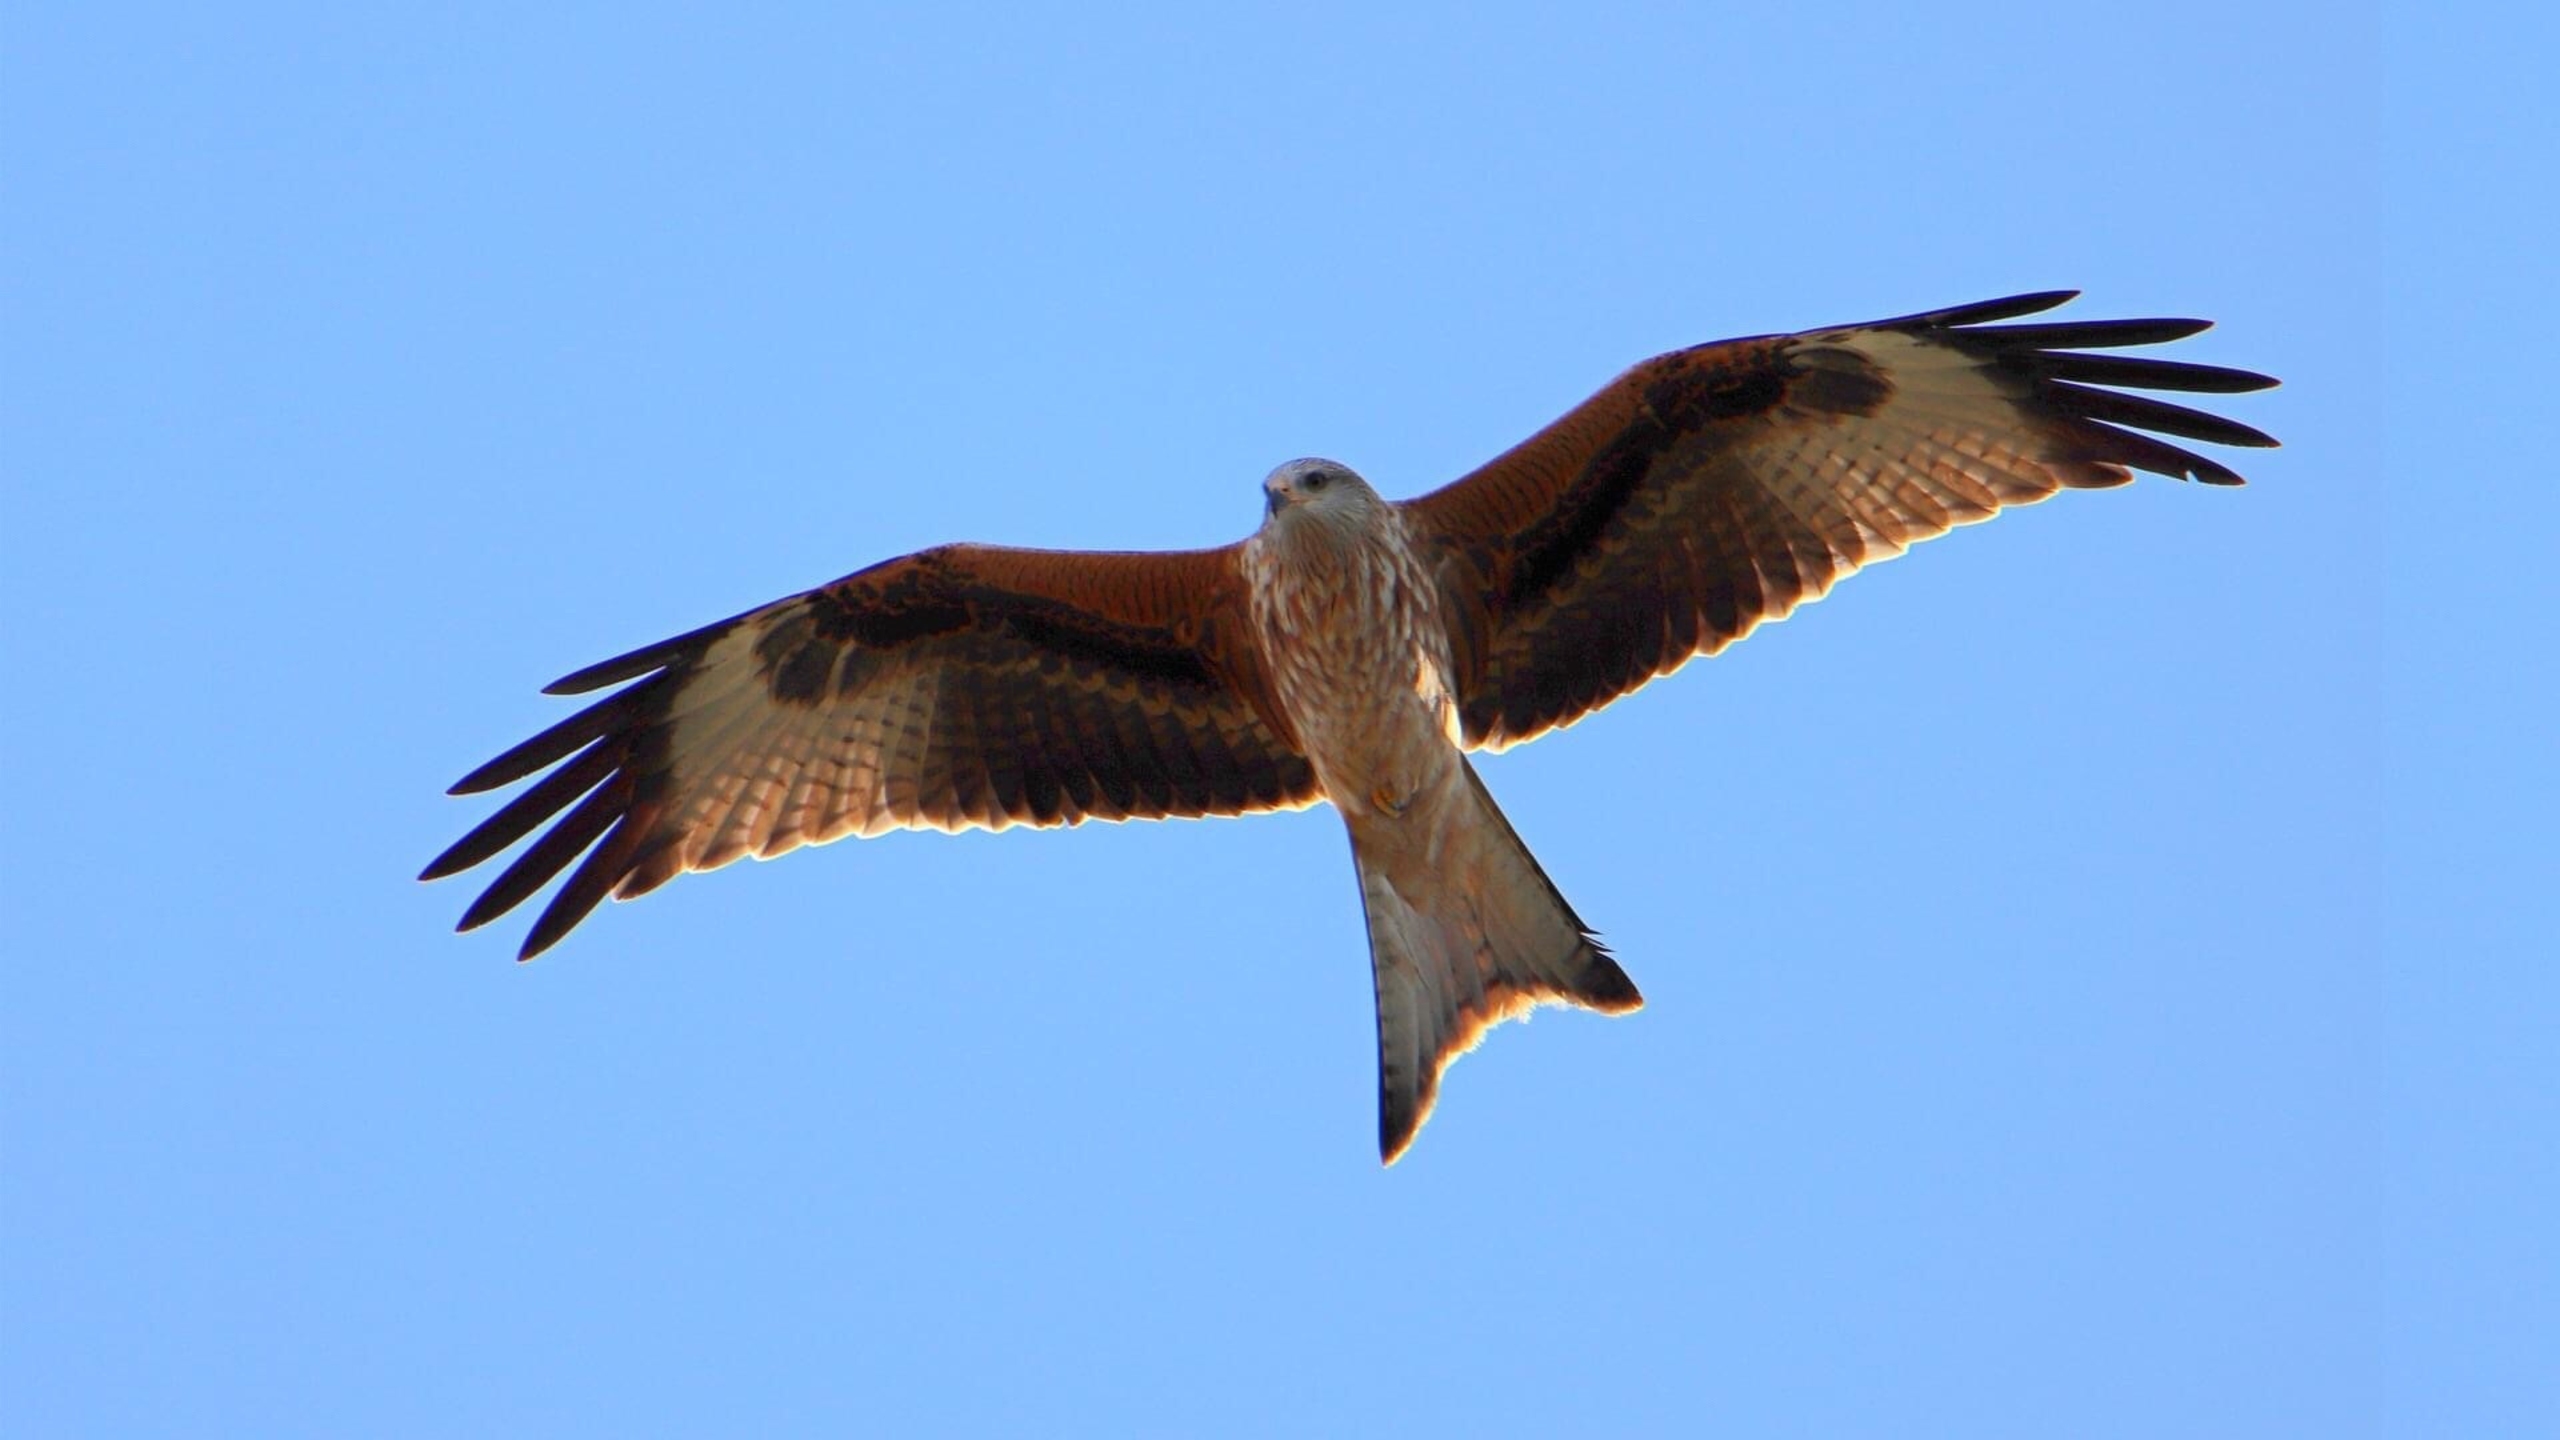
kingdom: Animalia
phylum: Chordata
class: Aves
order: Accipitriformes
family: Accipitridae
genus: Milvus
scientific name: Milvus milvus
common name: Rød glente
